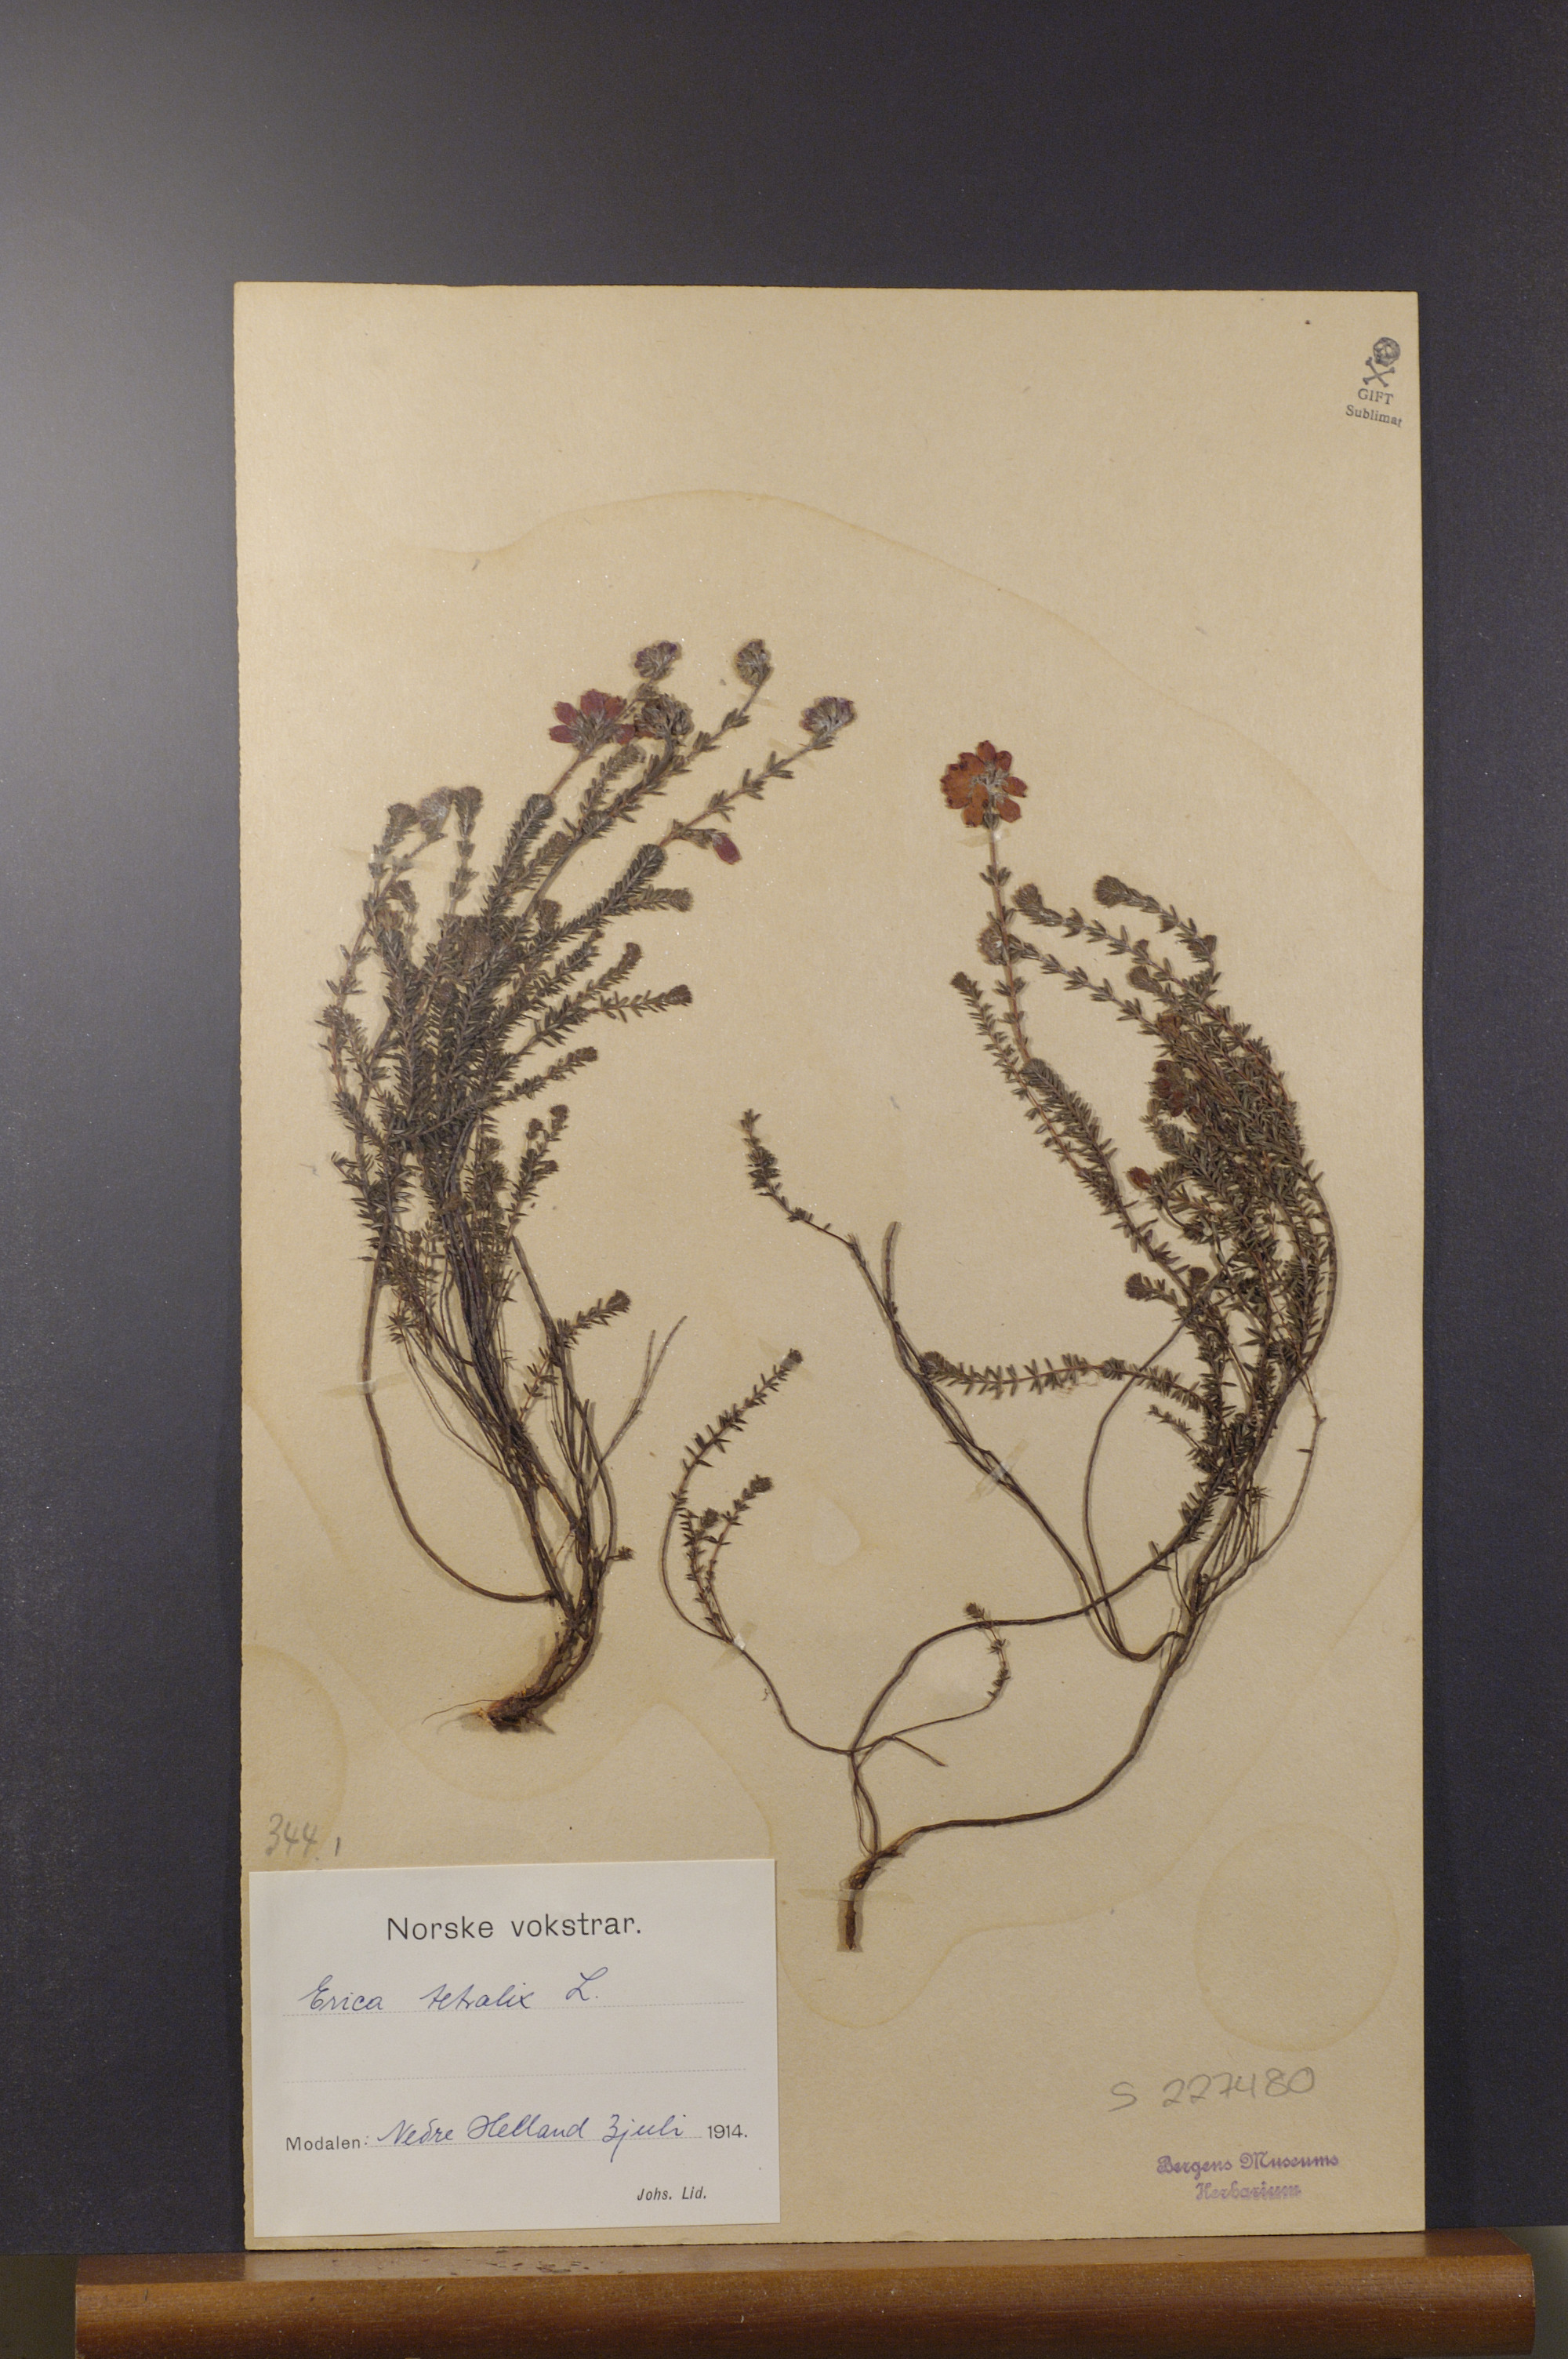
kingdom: Plantae
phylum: Tracheophyta
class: Magnoliopsida
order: Ericales
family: Ericaceae
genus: Erica
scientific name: Erica tetralix
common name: Cross-leaved heath
